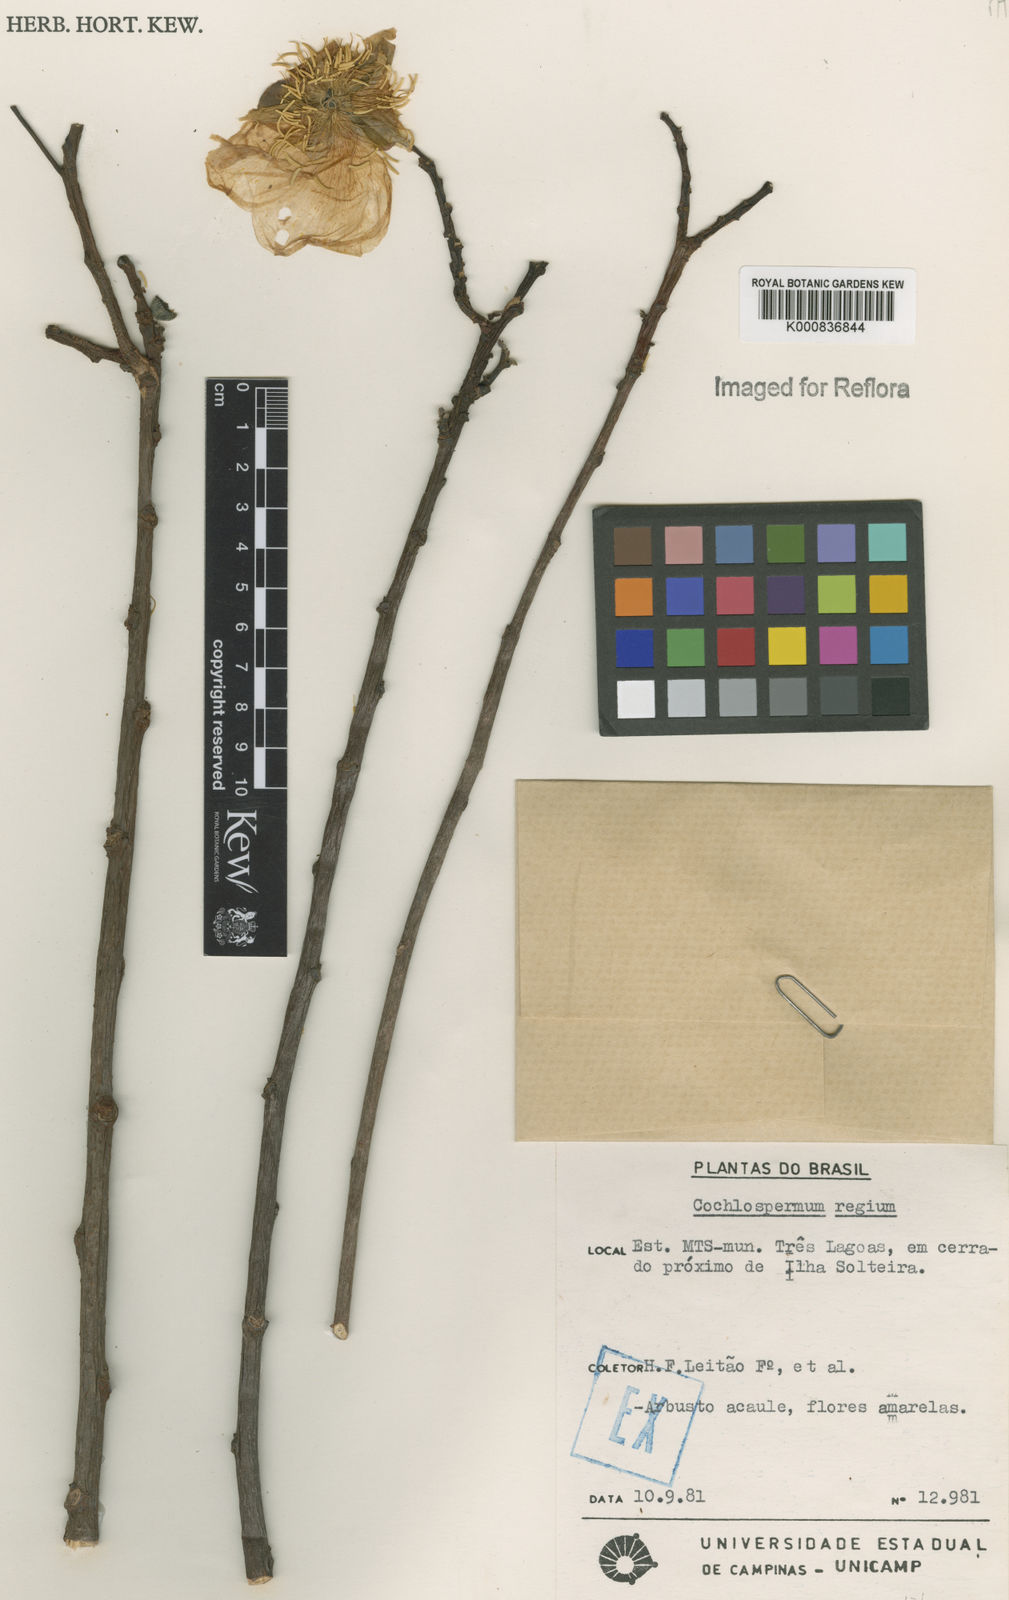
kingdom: Plantae
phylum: Tracheophyta
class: Magnoliopsida
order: Malvales
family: Cochlospermaceae
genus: Cochlospermum
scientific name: Cochlospermum regium
